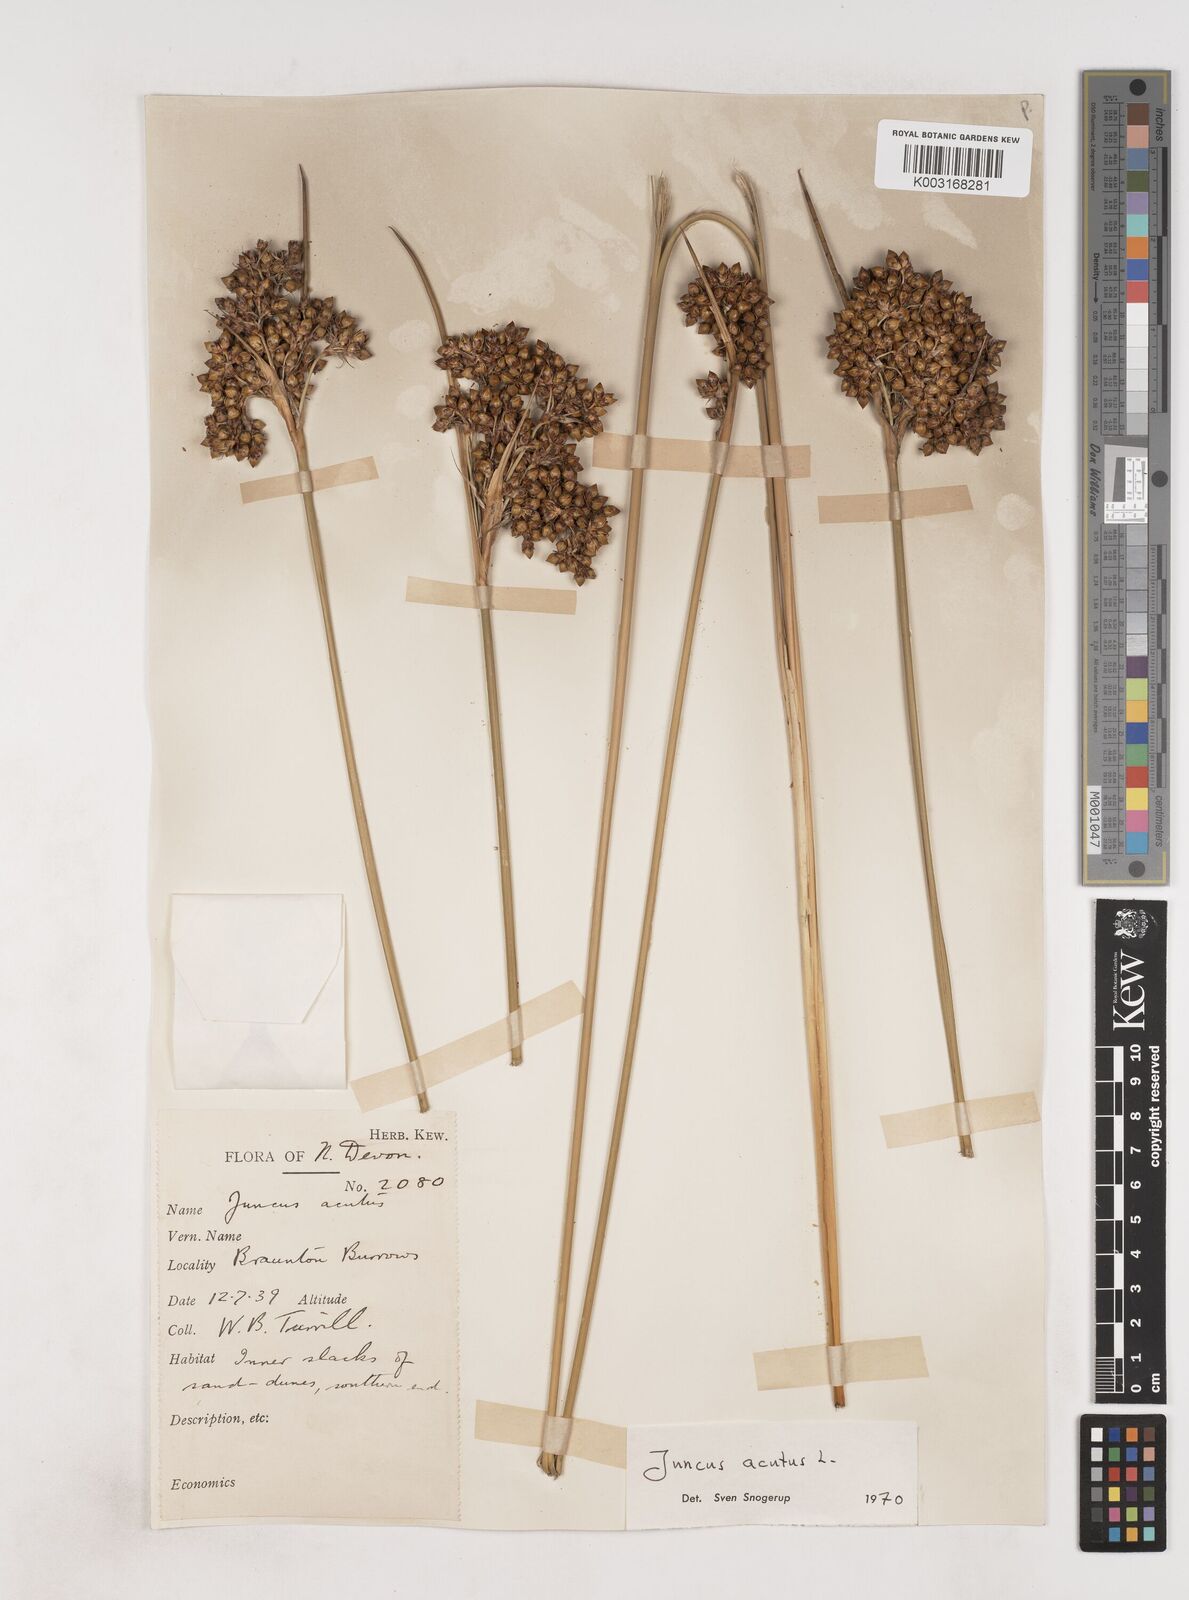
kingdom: Plantae
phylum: Tracheophyta
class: Liliopsida
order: Poales
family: Juncaceae
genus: Juncus
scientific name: Juncus acutus
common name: Sharp rush
